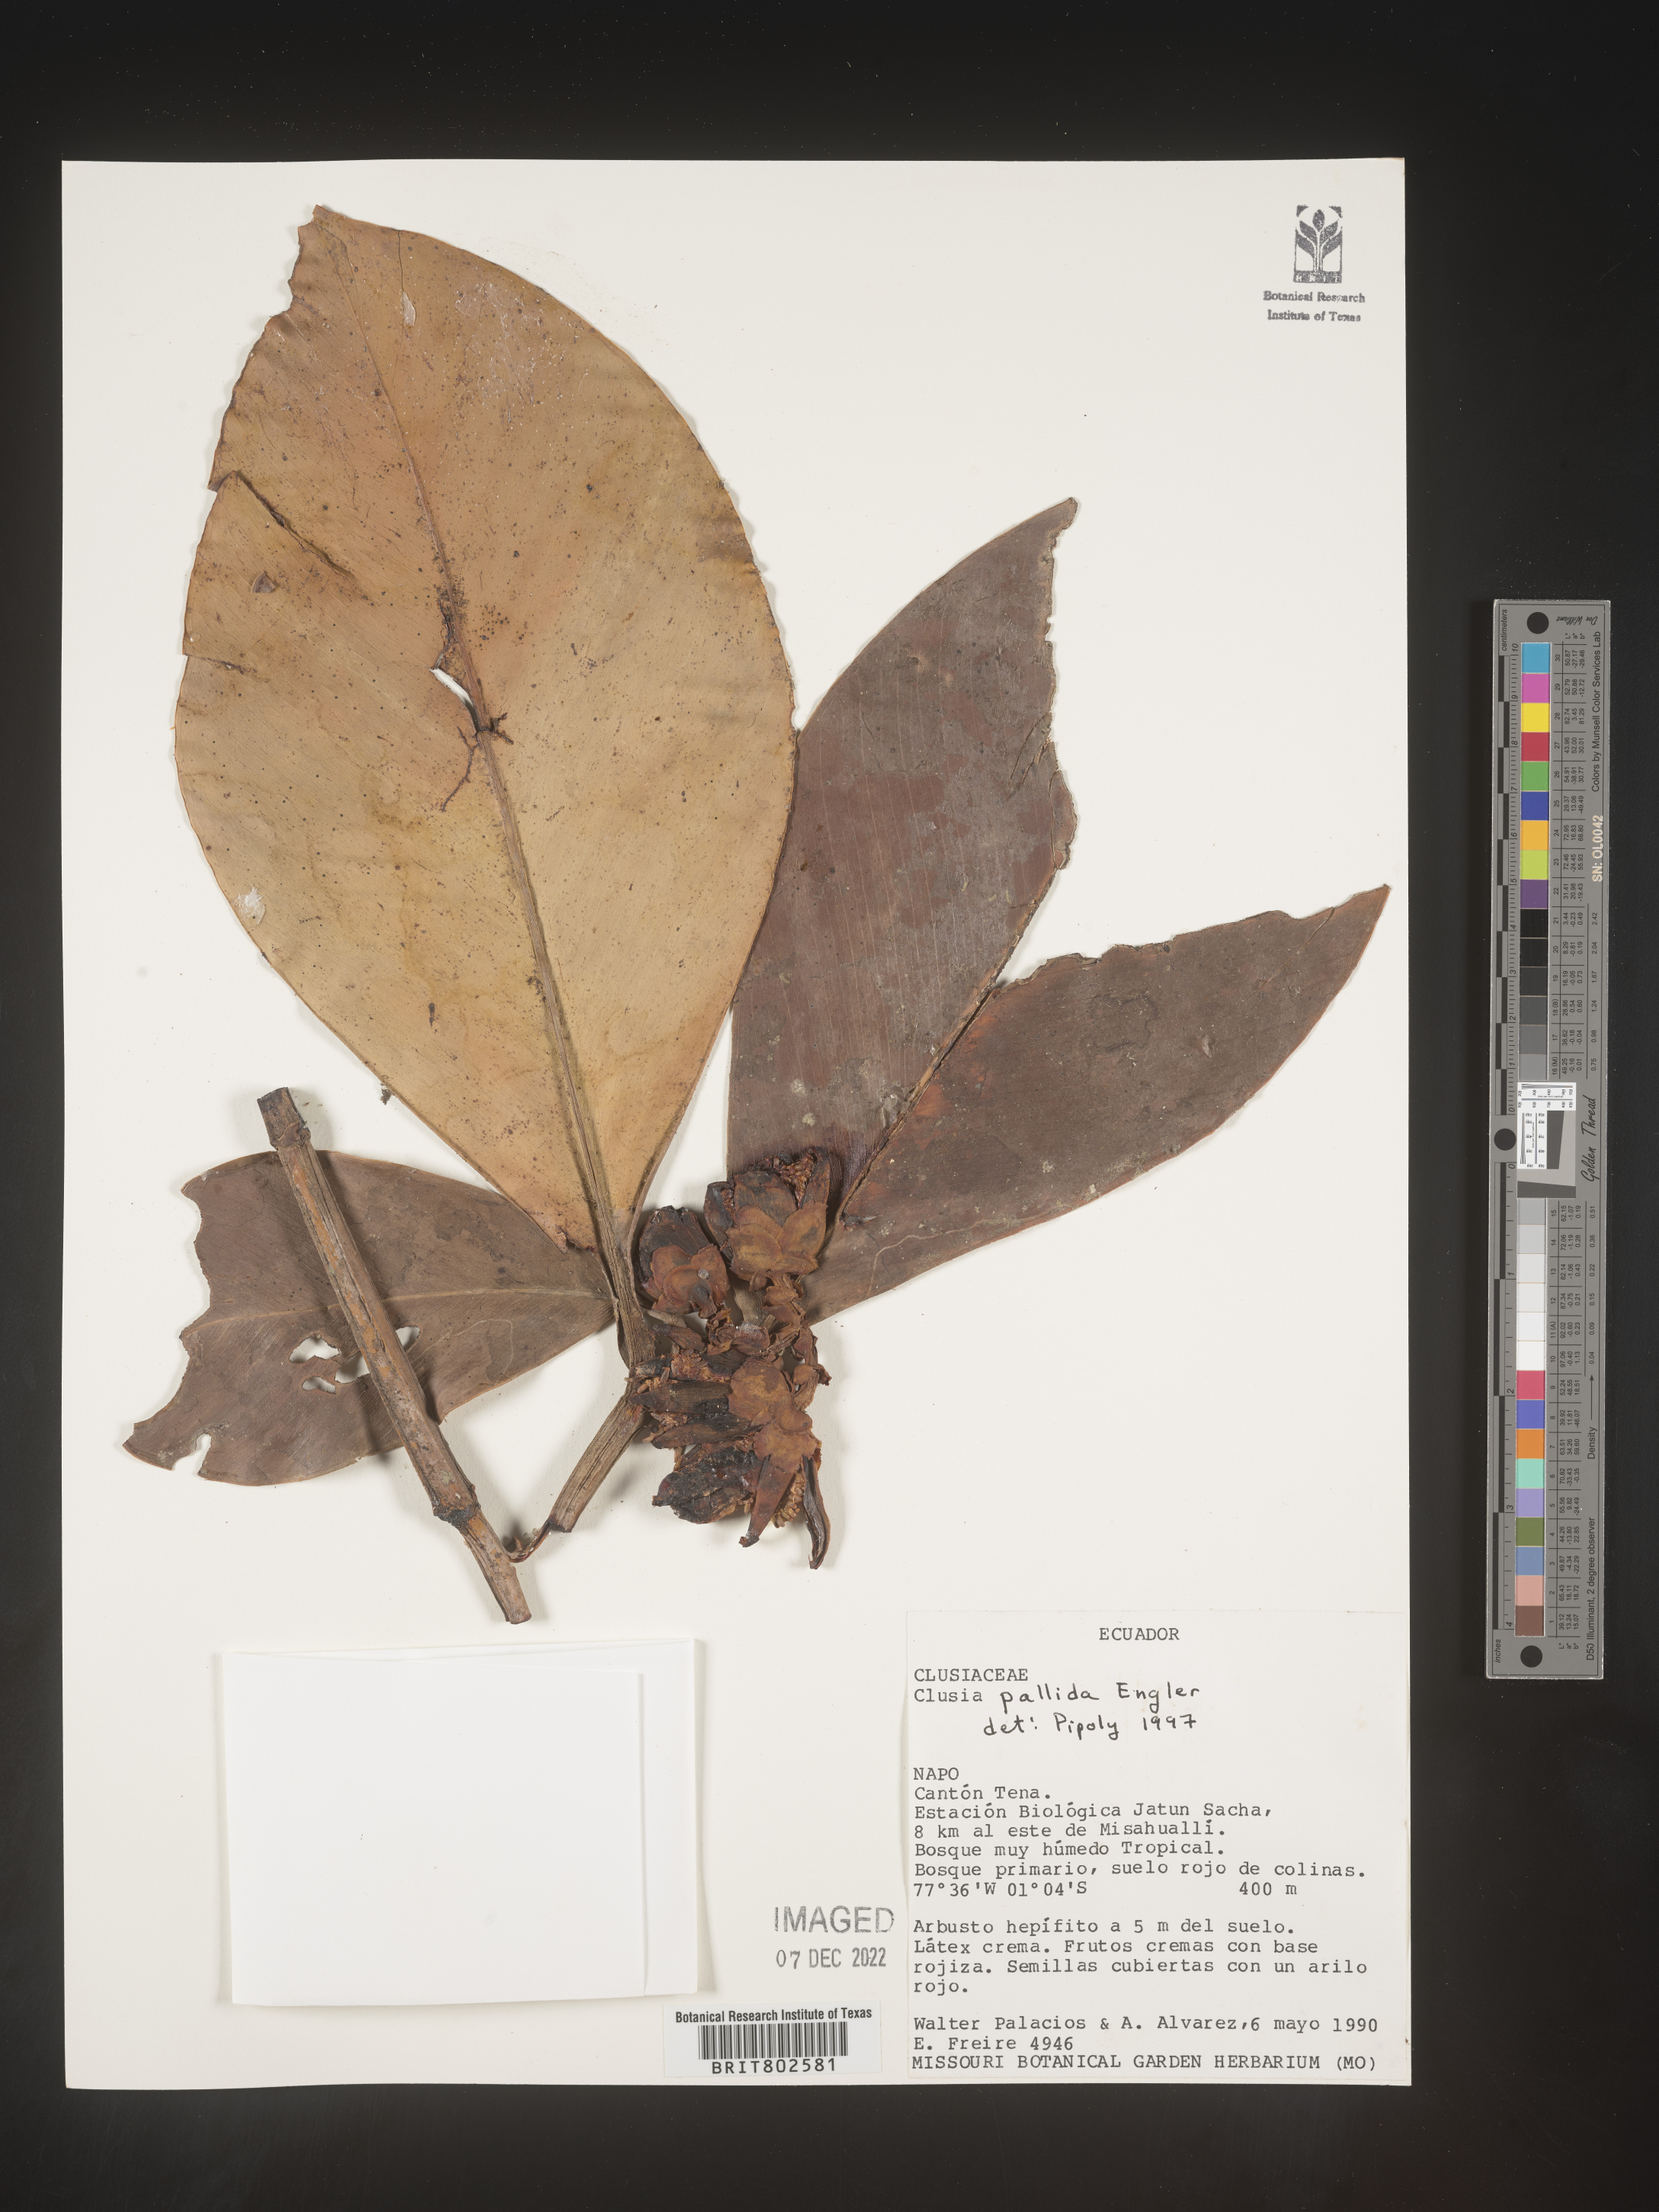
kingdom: Plantae
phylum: Tracheophyta
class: Magnoliopsida
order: Malpighiales
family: Clusiaceae
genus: Clusia
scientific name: Clusia pallida
